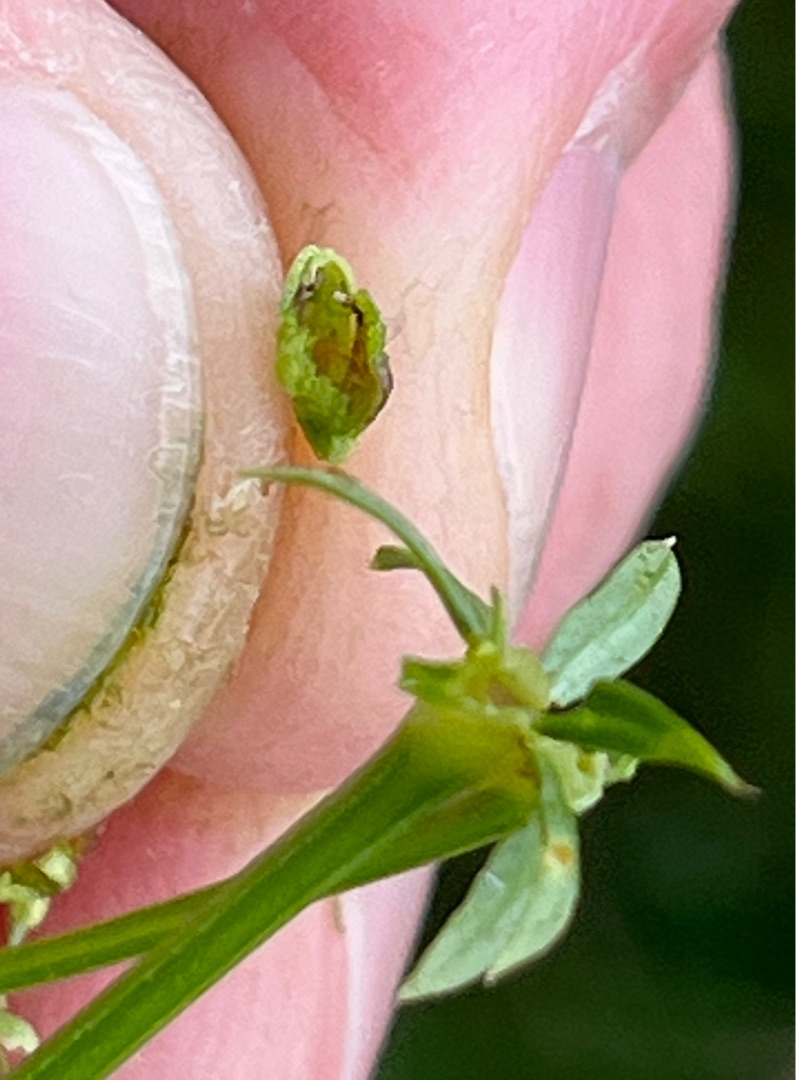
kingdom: Animalia
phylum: Arthropoda
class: Insecta
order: Diptera
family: Cecidomyiidae
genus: Schizomyia
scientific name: Schizomyia galiorum
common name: Snerreblomstgalmyg
